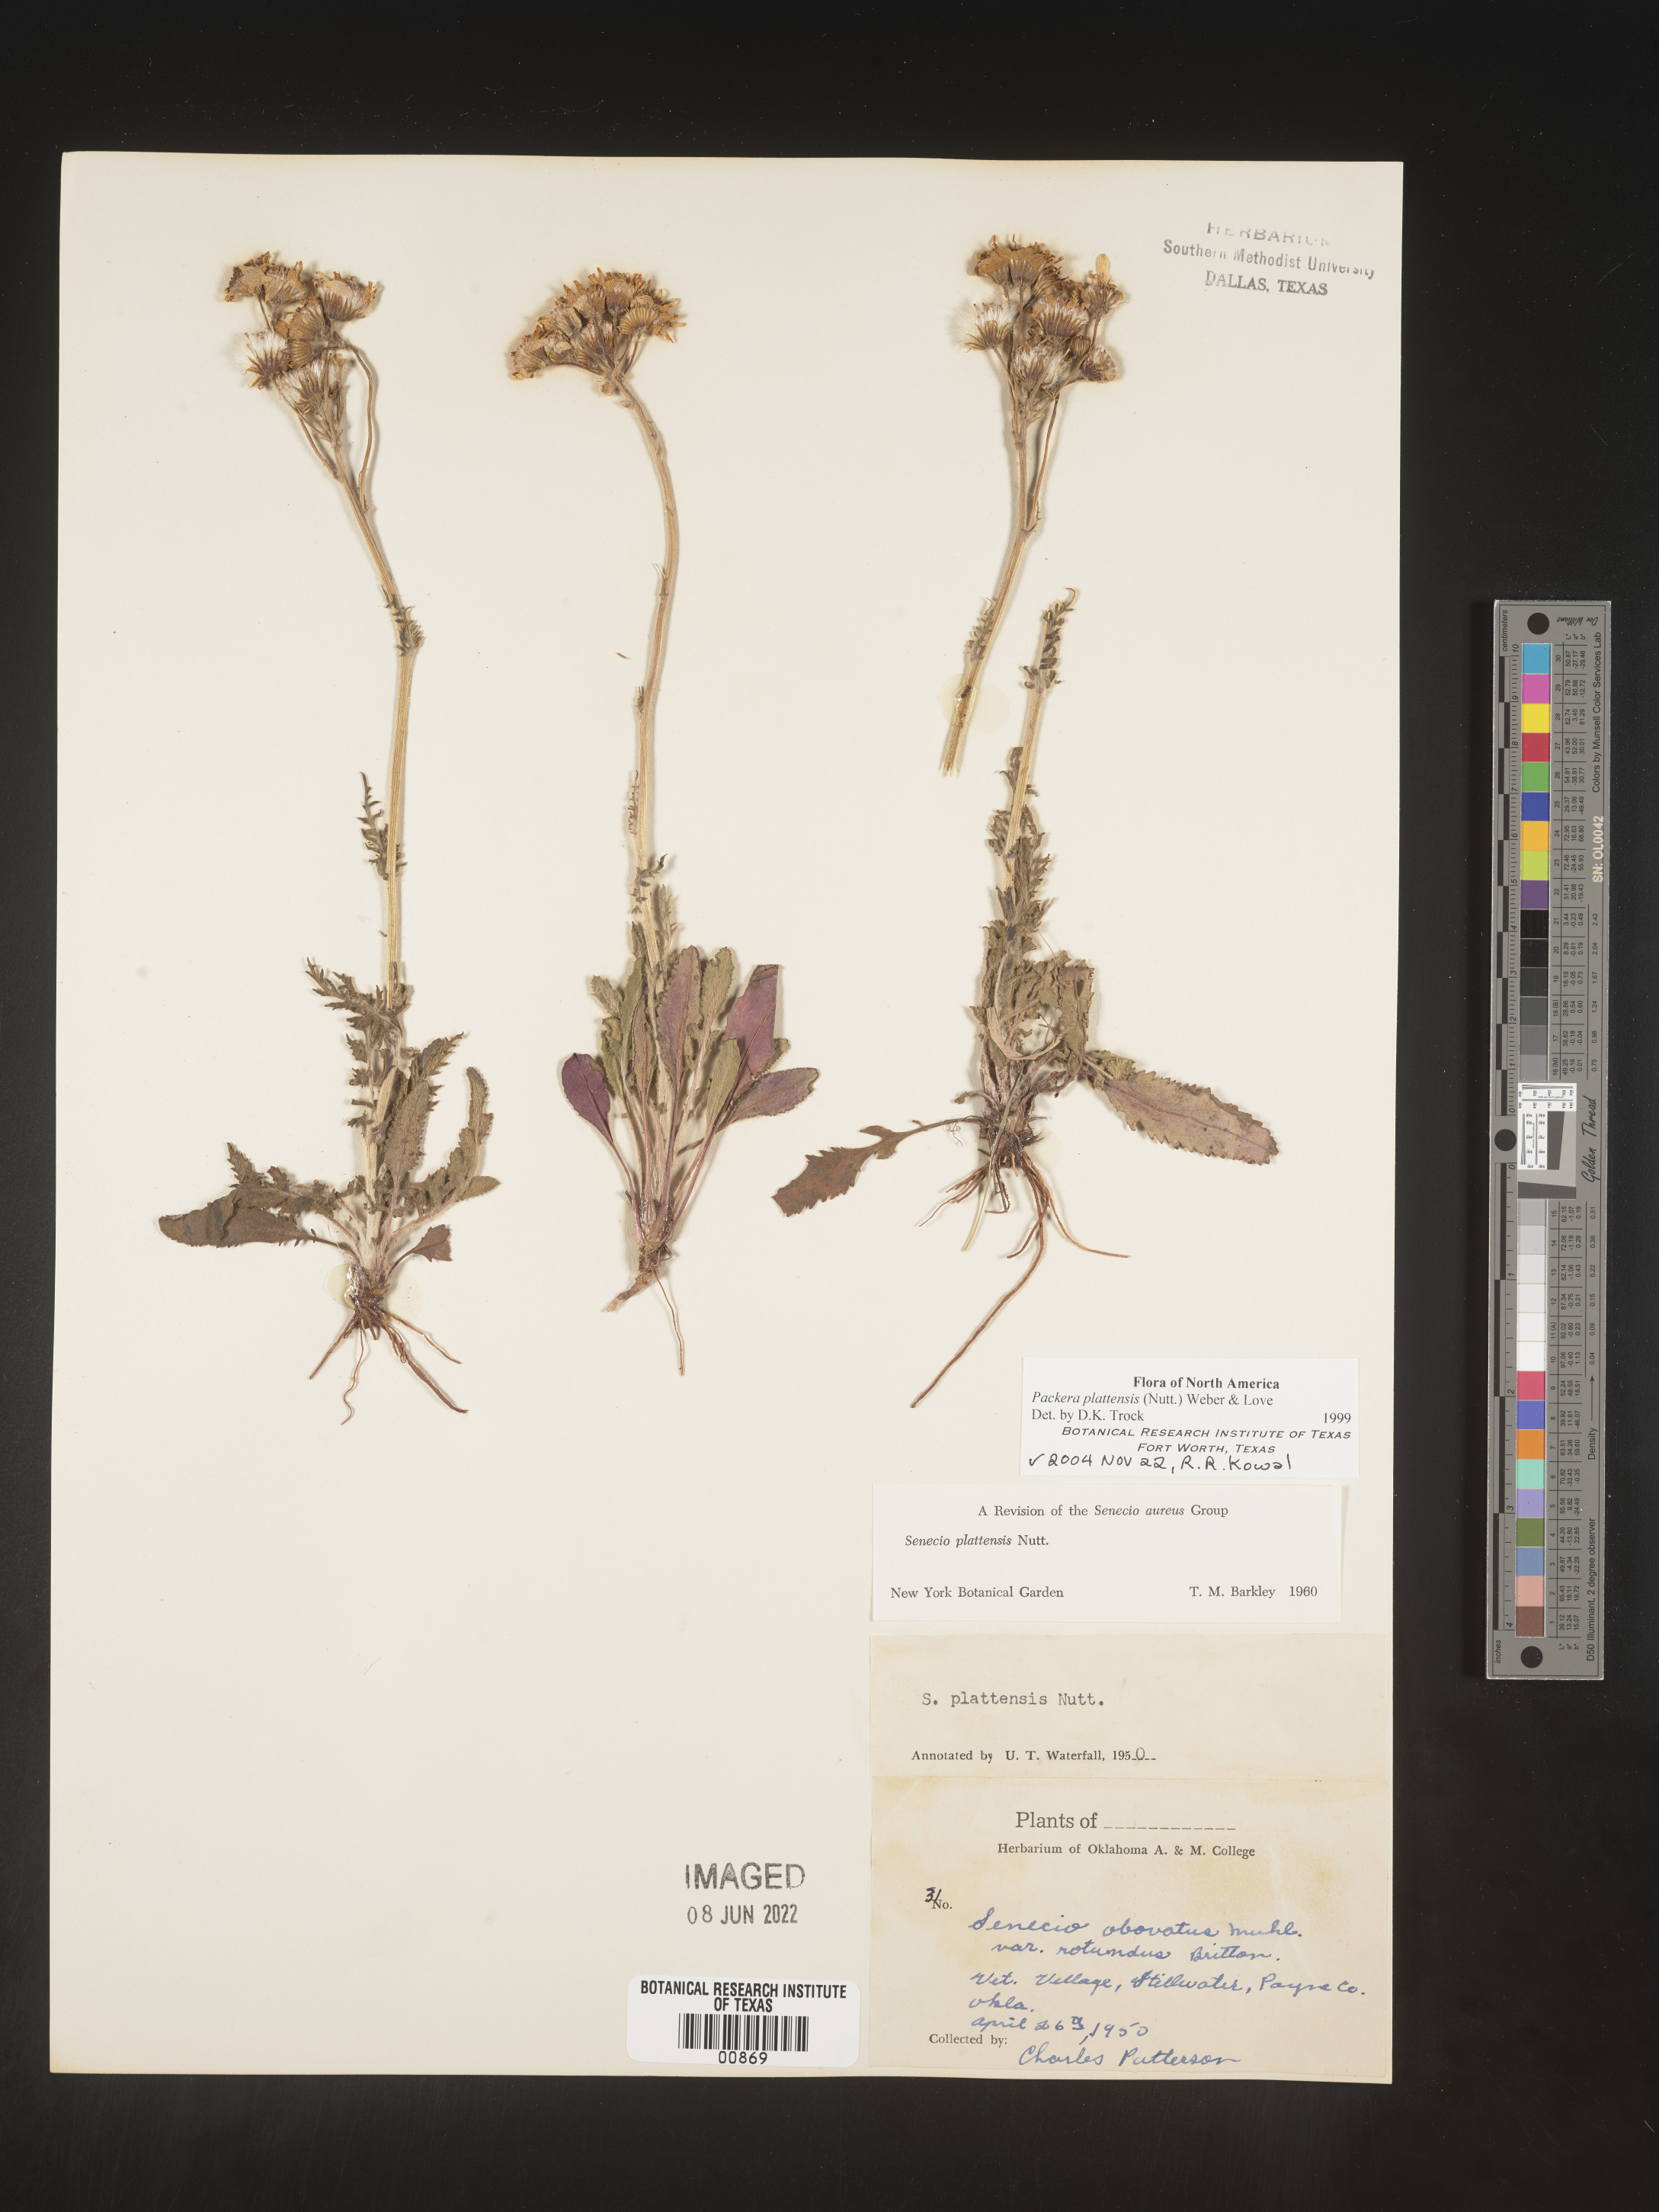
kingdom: Plantae
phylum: Tracheophyta
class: Magnoliopsida
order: Asterales
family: Asteraceae
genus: Packera
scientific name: Packera plattensis
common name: Prairie groundsel
